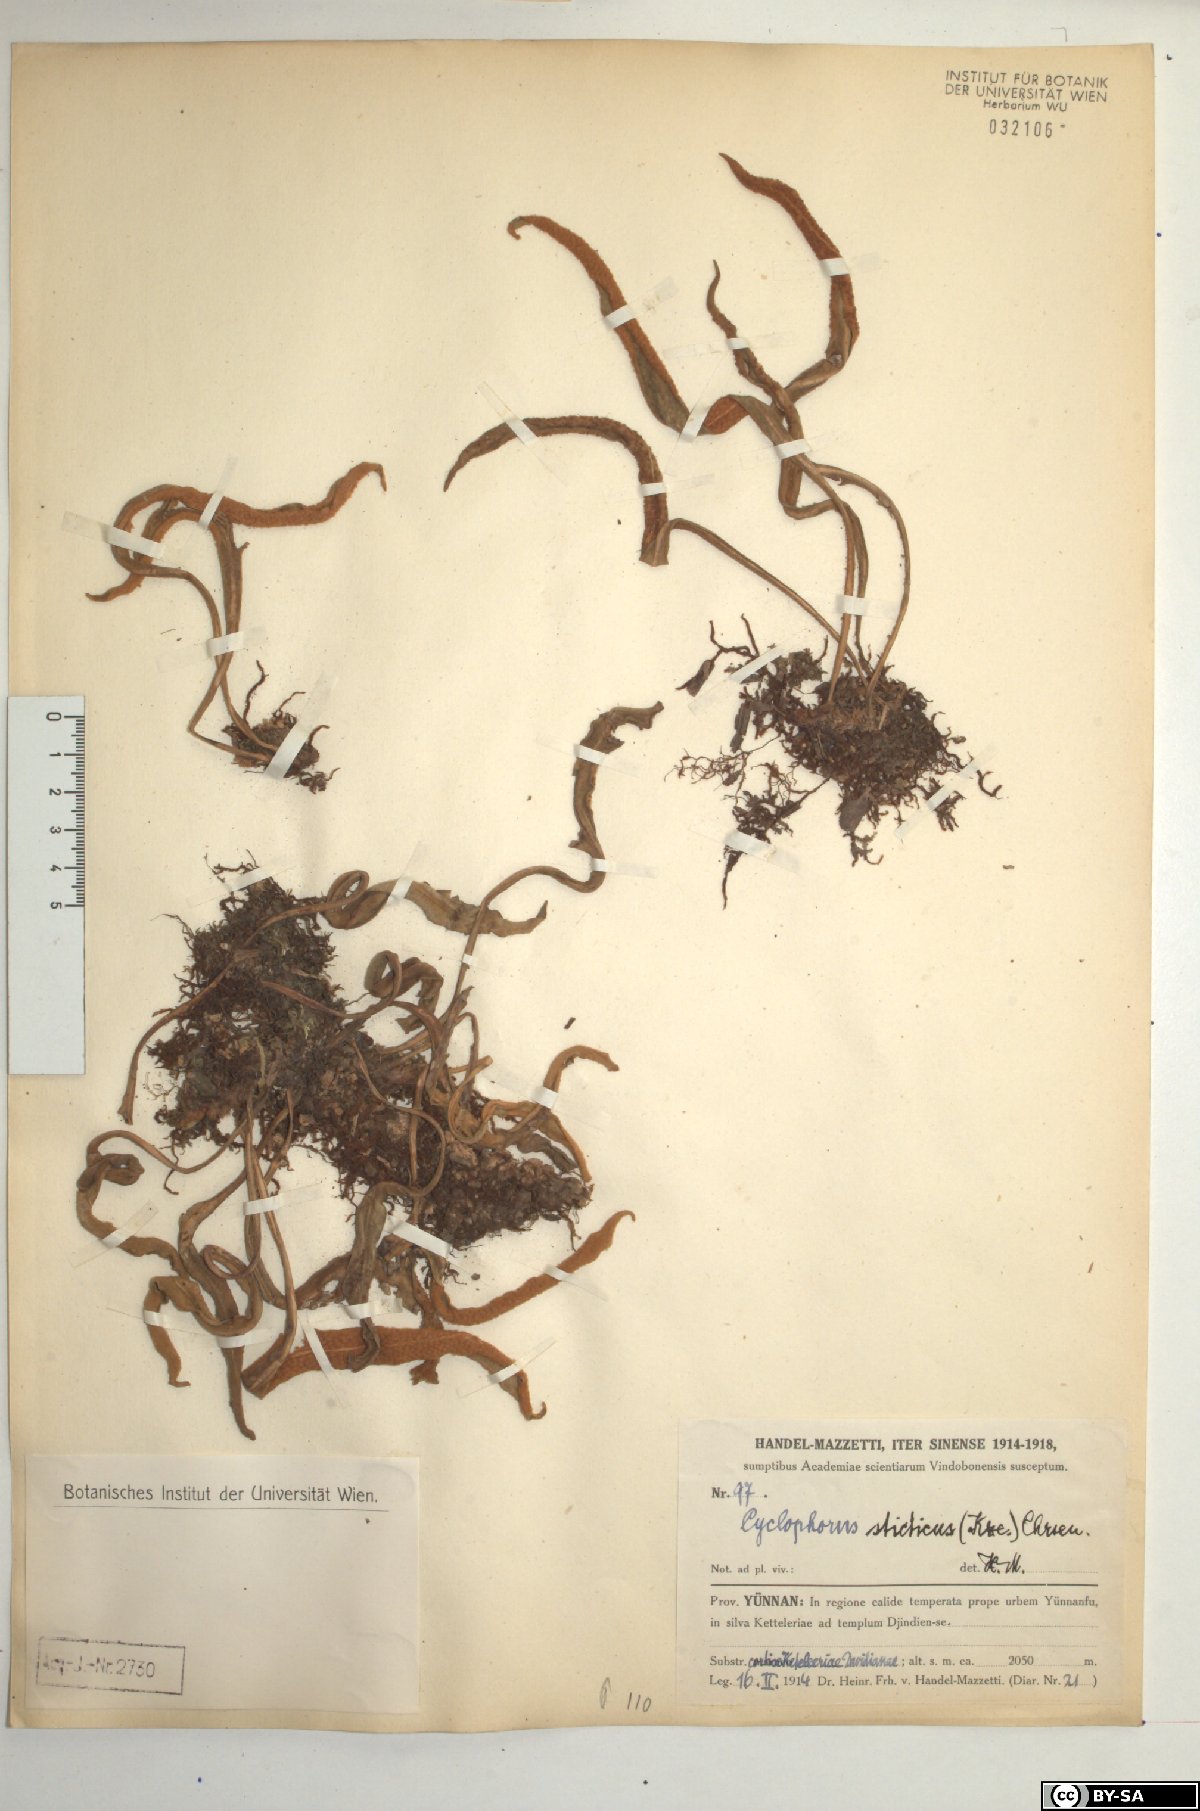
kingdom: Plantae
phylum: Tracheophyta
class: Polypodiopsida
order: Polypodiales
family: Polypodiaceae
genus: Pyrrosia
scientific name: Pyrrosia porosa
